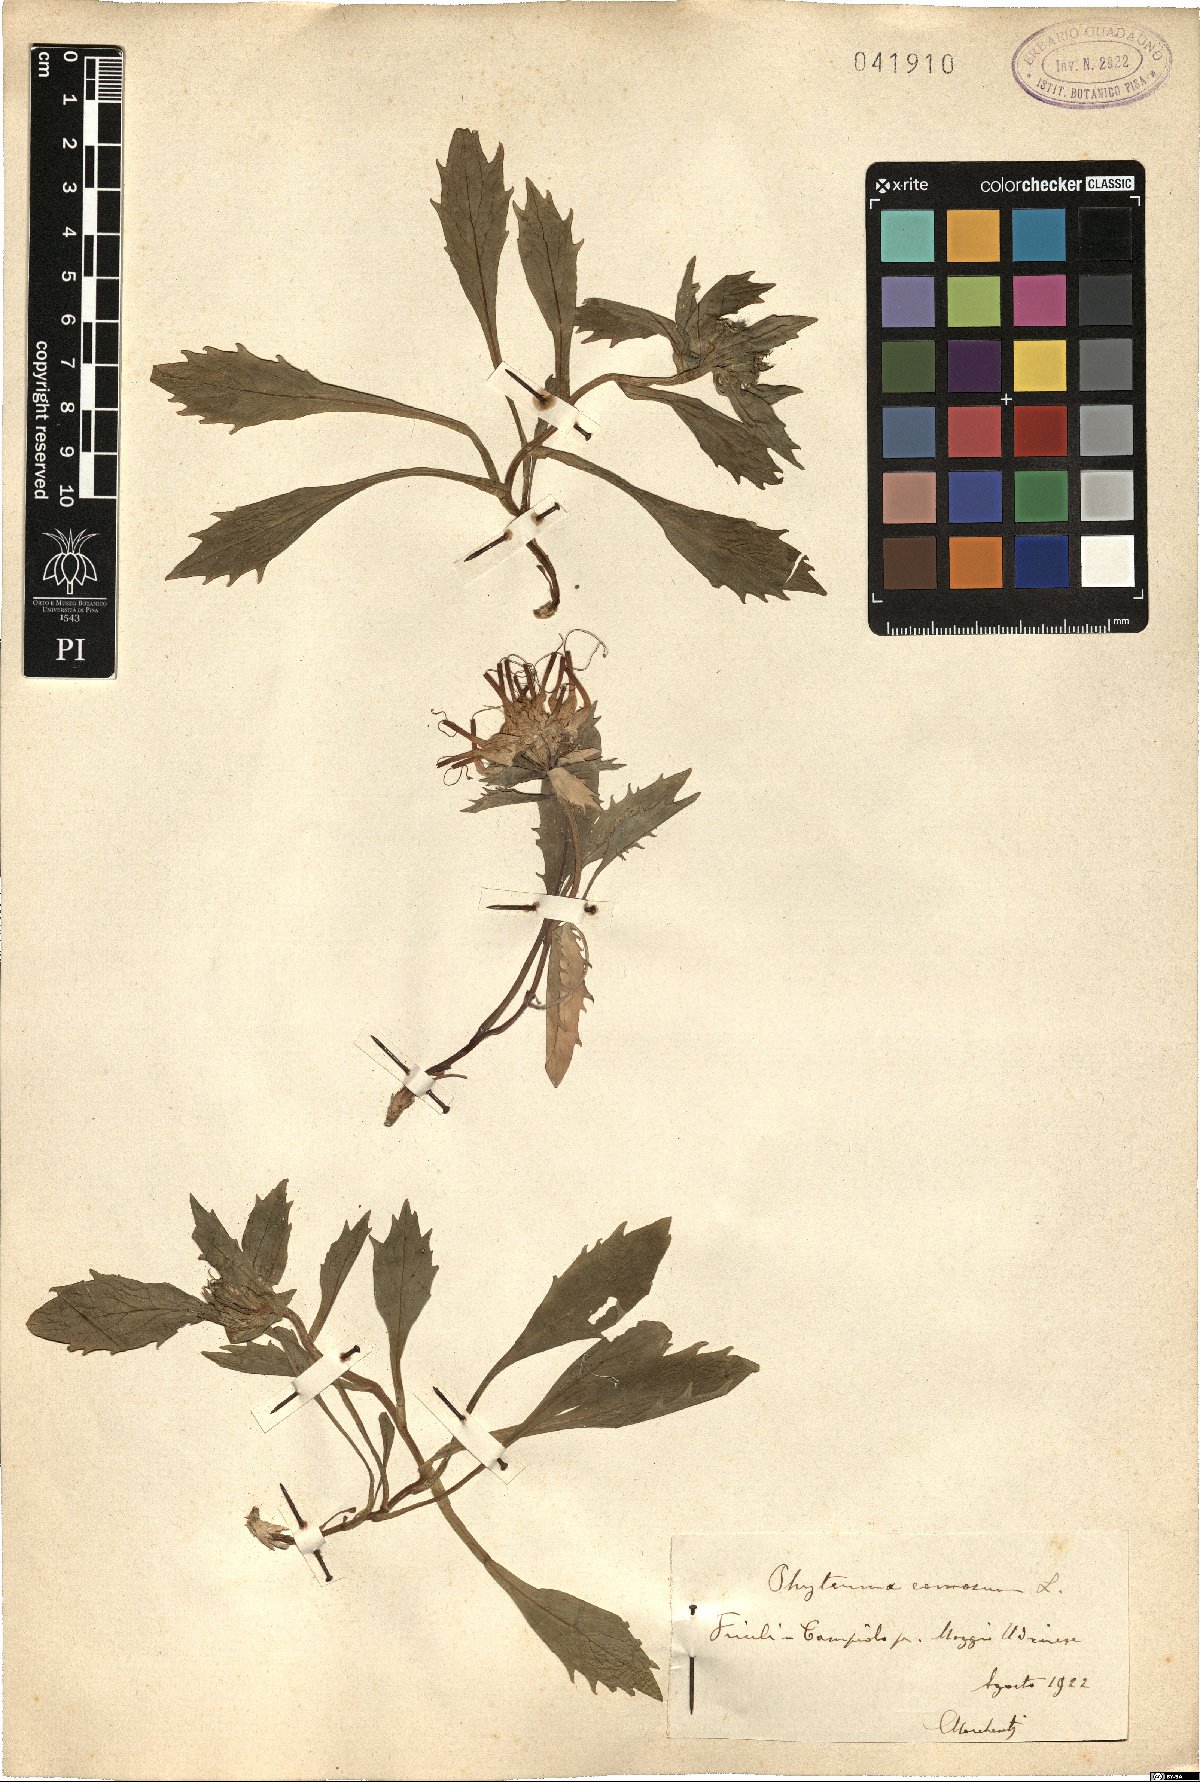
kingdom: Plantae
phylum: Tracheophyta
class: Magnoliopsida
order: Asterales
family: Campanulaceae
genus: Physoplexis
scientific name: Physoplexis comosa
